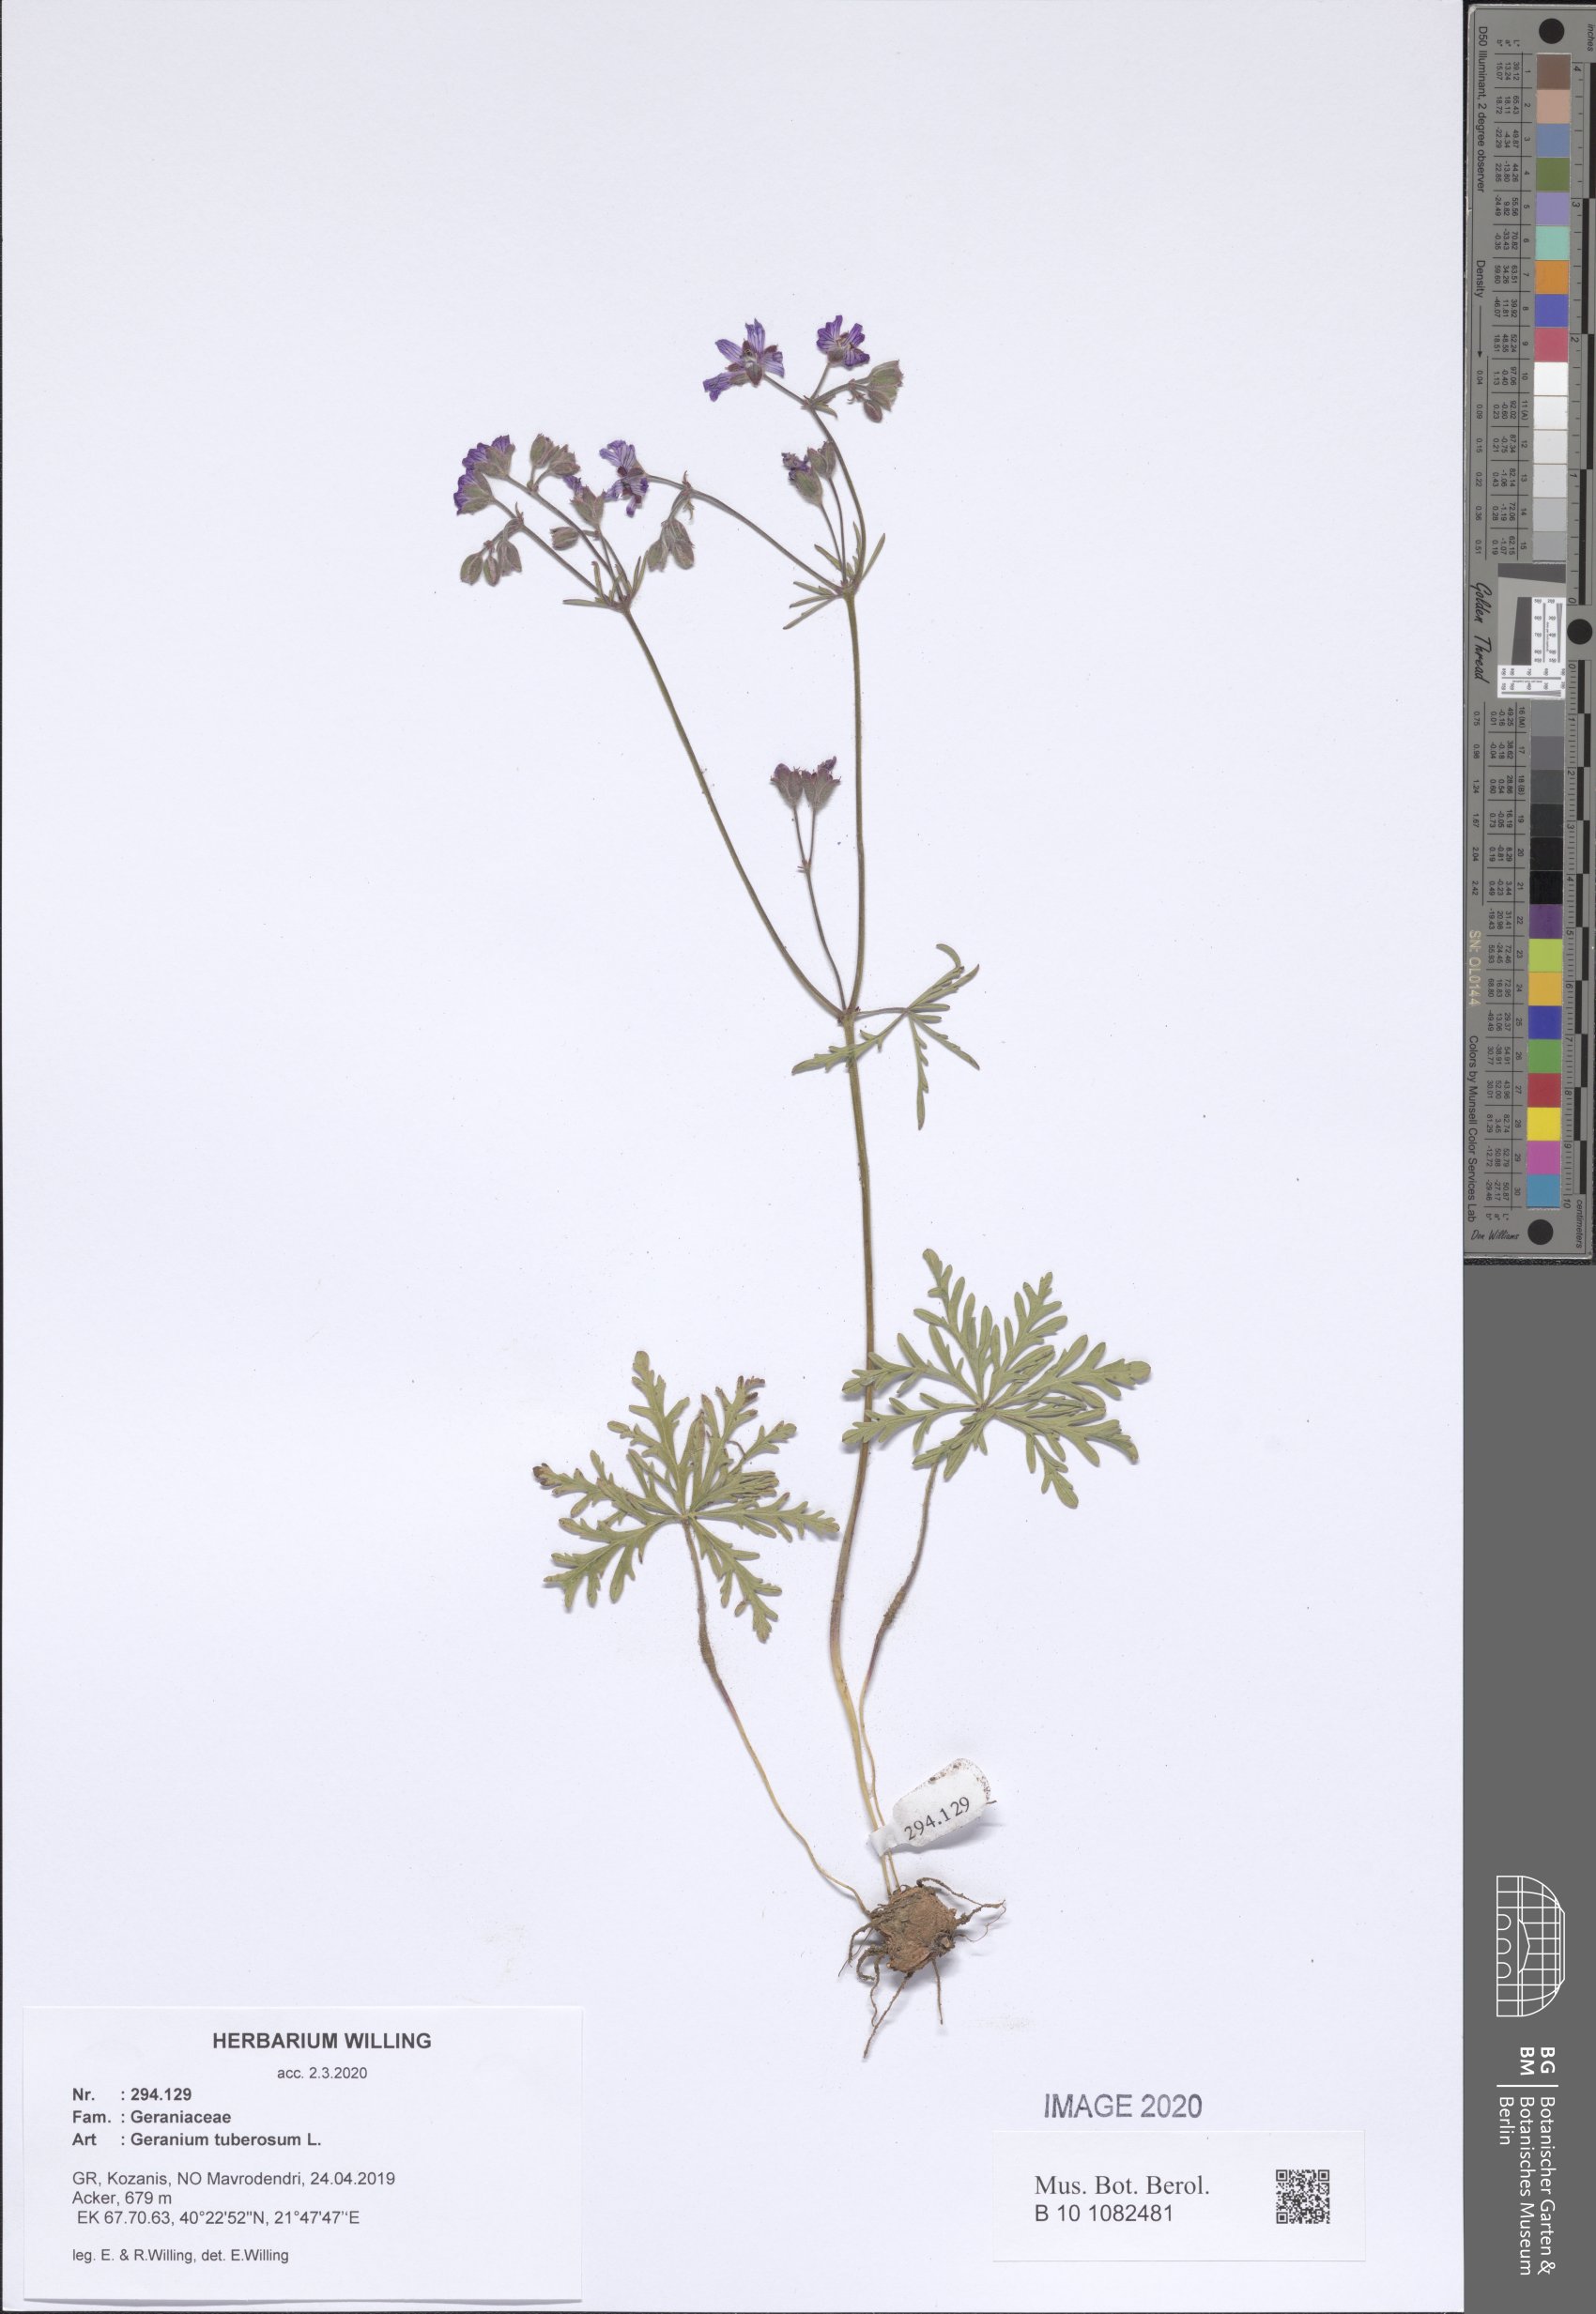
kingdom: Plantae
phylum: Tracheophyta
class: Magnoliopsida
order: Geraniales
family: Geraniaceae
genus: Geranium
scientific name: Geranium tuberosum
